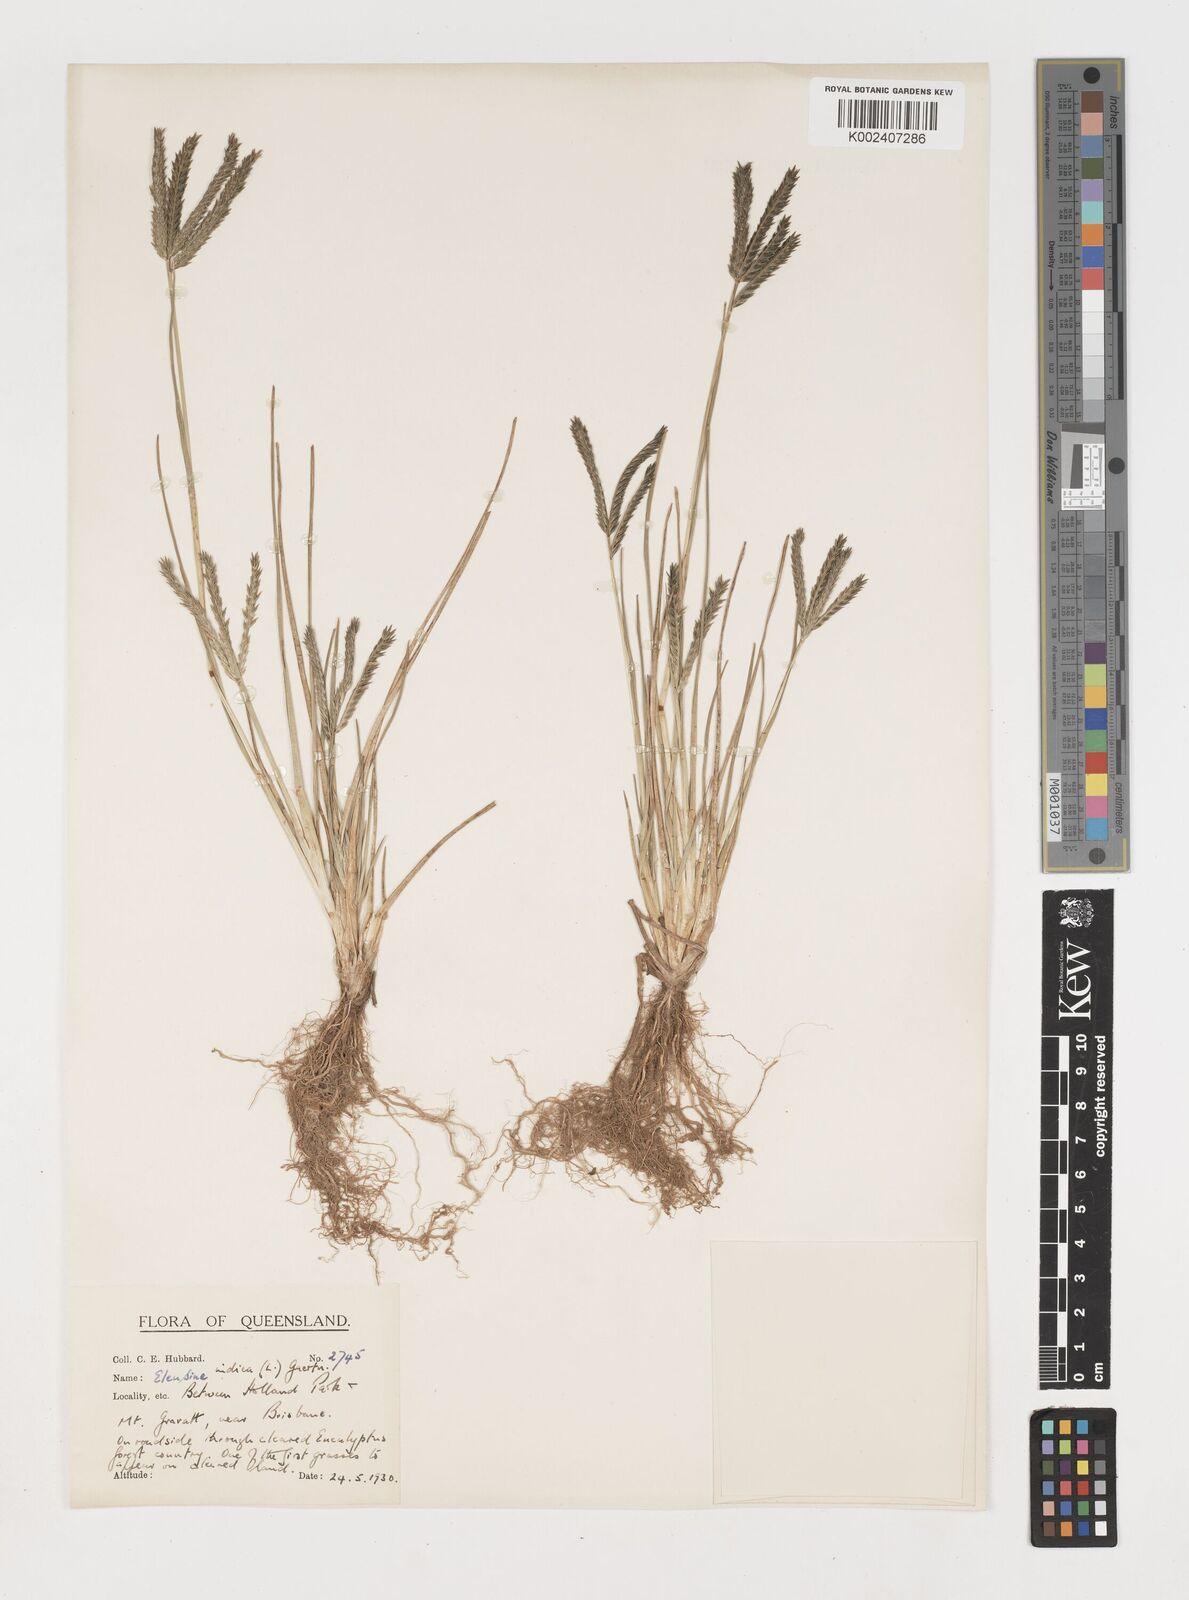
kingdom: Plantae
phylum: Tracheophyta
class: Liliopsida
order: Poales
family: Poaceae
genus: Eleusine
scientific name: Eleusine africana
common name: Wild african finger millet
